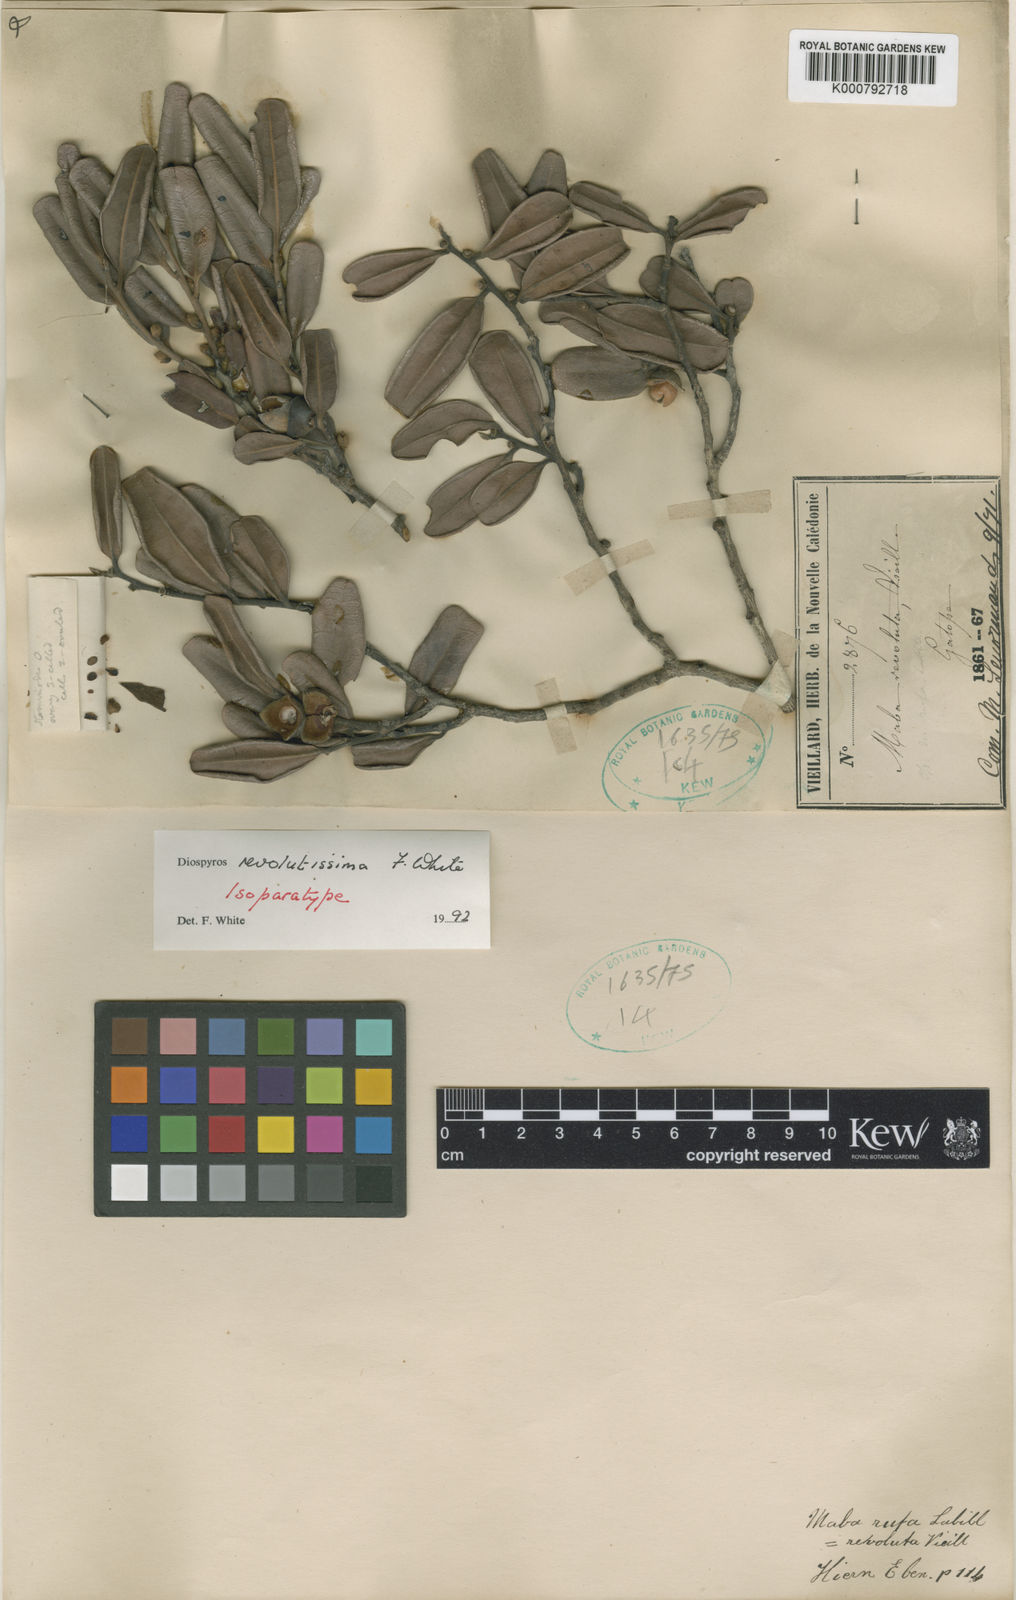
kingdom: Plantae
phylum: Tracheophyta
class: Magnoliopsida
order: Ericales
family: Ebenaceae
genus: Diospyros
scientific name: Diospyros revolutissima
